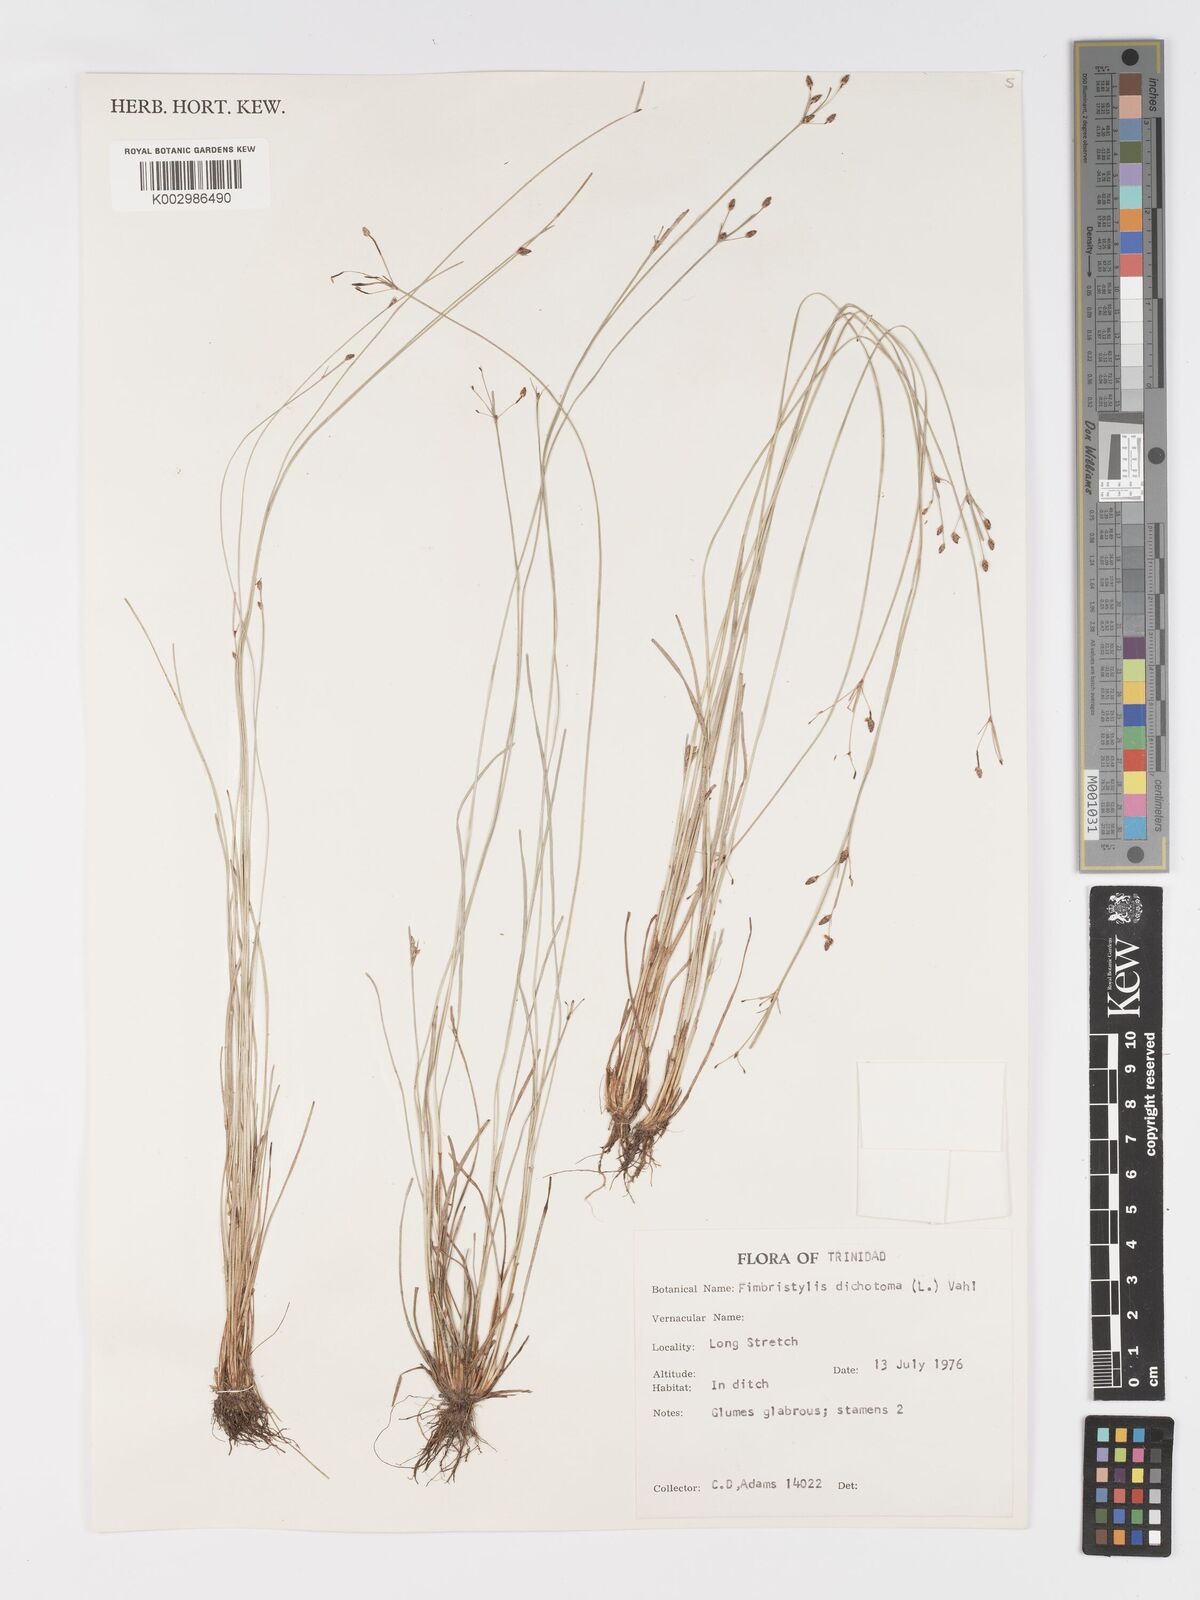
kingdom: Plantae
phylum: Tracheophyta
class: Liliopsida
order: Poales
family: Cyperaceae
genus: Fimbristylis
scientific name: Fimbristylis dichotoma
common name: Forked fimbry
